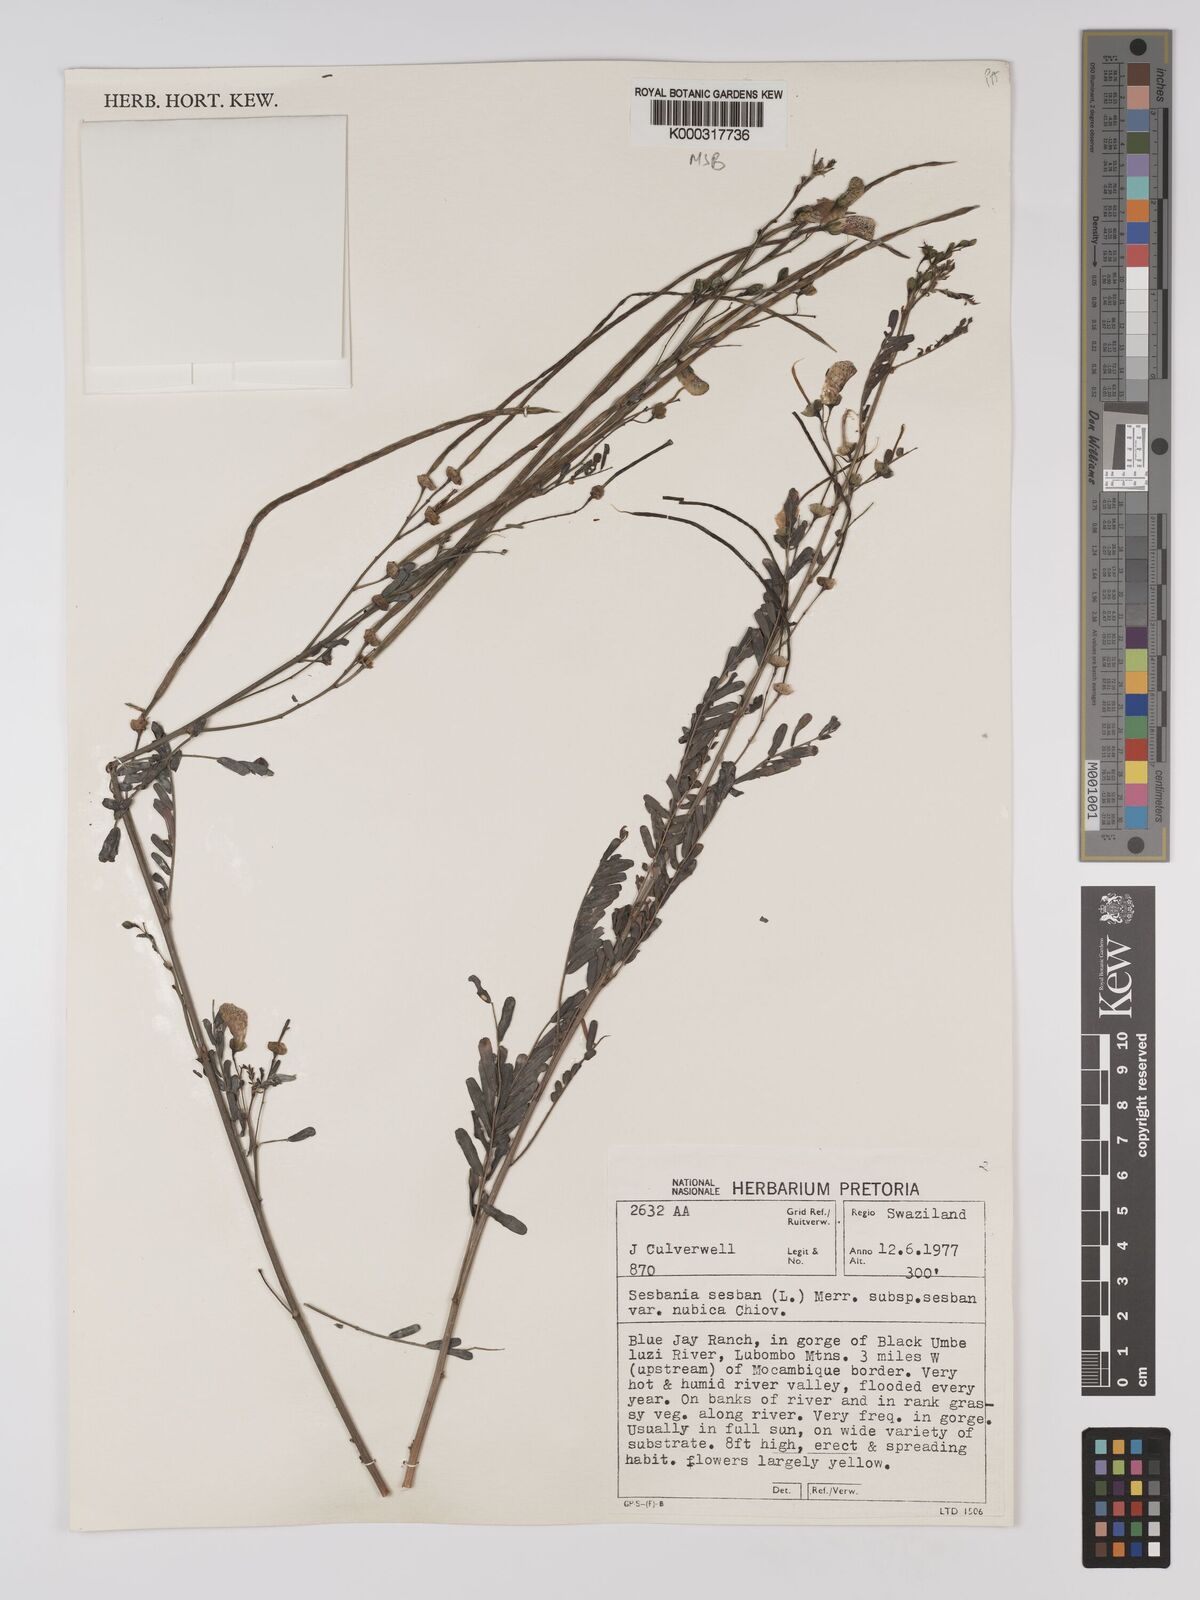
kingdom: Plantae
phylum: Tracheophyta
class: Magnoliopsida
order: Fabales
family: Fabaceae
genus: Sesbania
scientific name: Sesbania sesban
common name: Egyptian sesban
